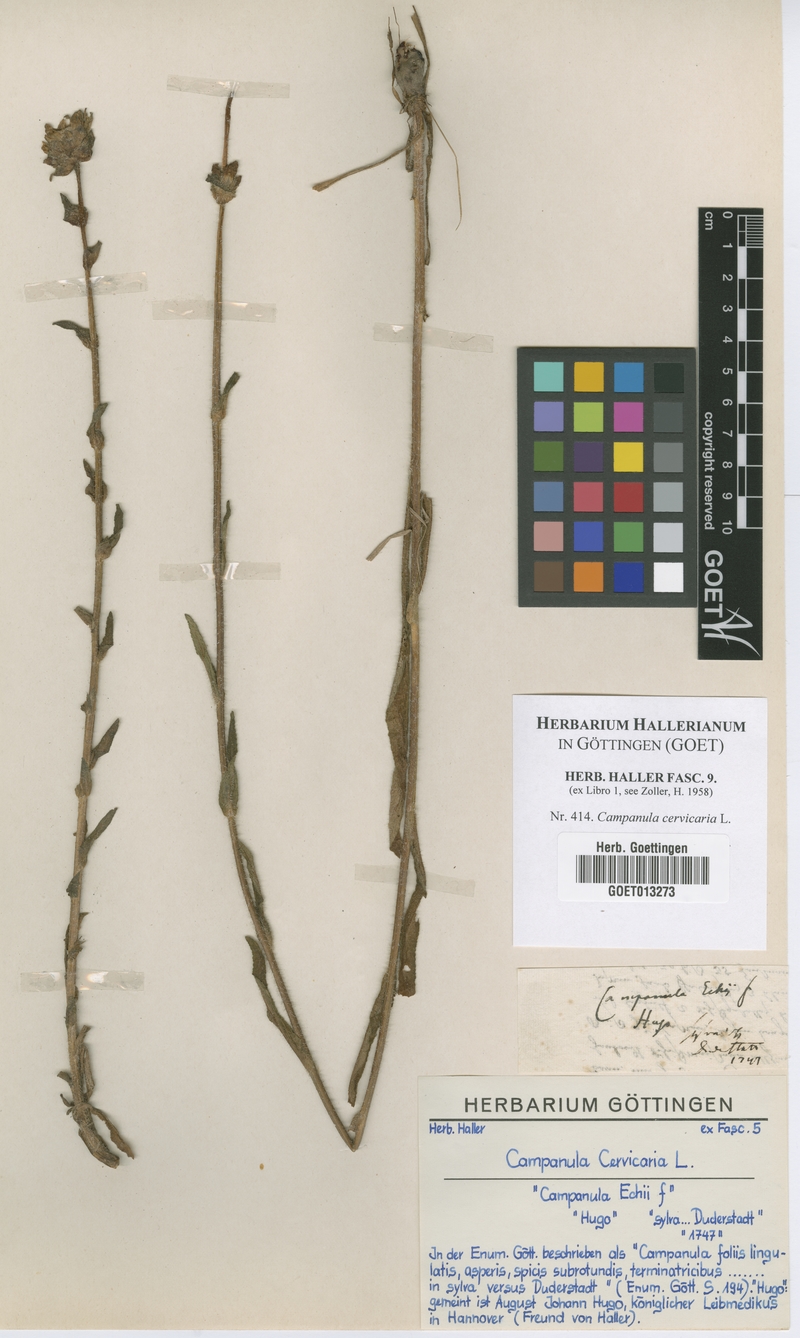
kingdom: Plantae
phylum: Tracheophyta
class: Magnoliopsida
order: Asterales
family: Campanulaceae
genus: Campanula
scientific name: Campanula cervicaria
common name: Bristly bellflower
